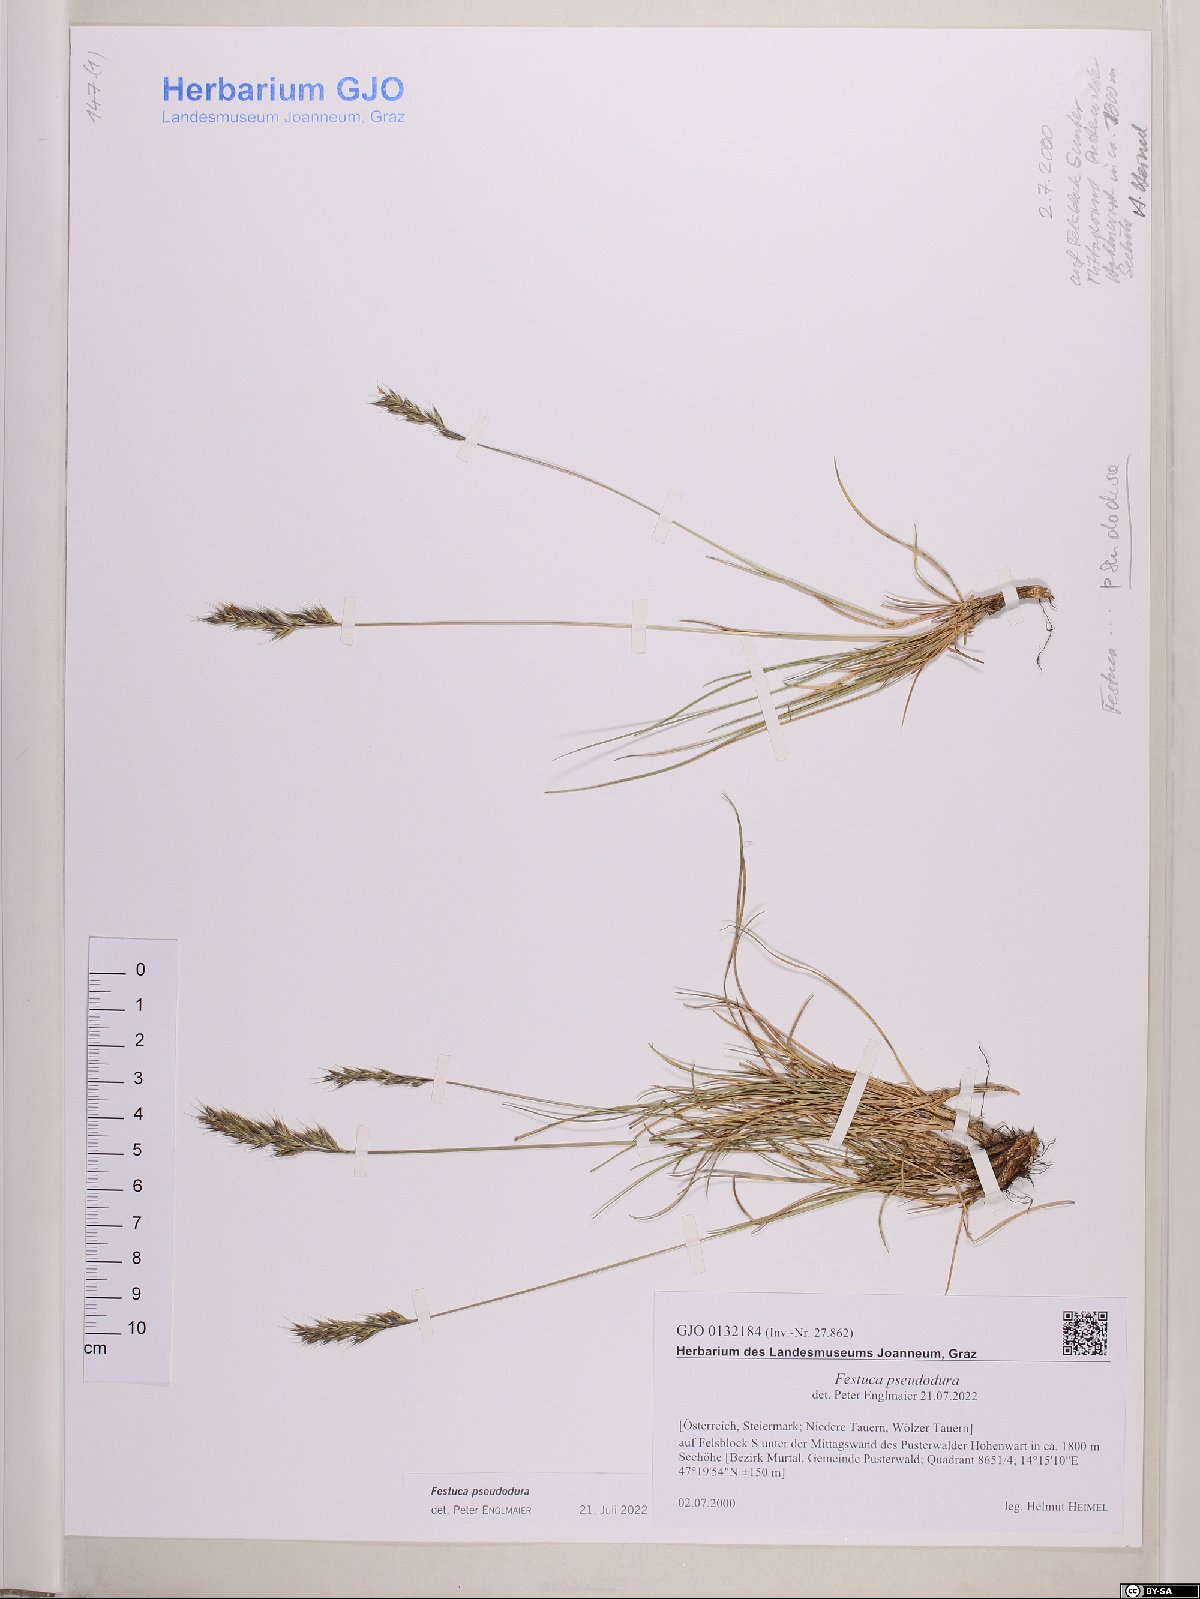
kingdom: Plantae
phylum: Tracheophyta
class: Liliopsida
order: Poales
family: Poaceae
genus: Festuca
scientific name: Festuca pseudodura
